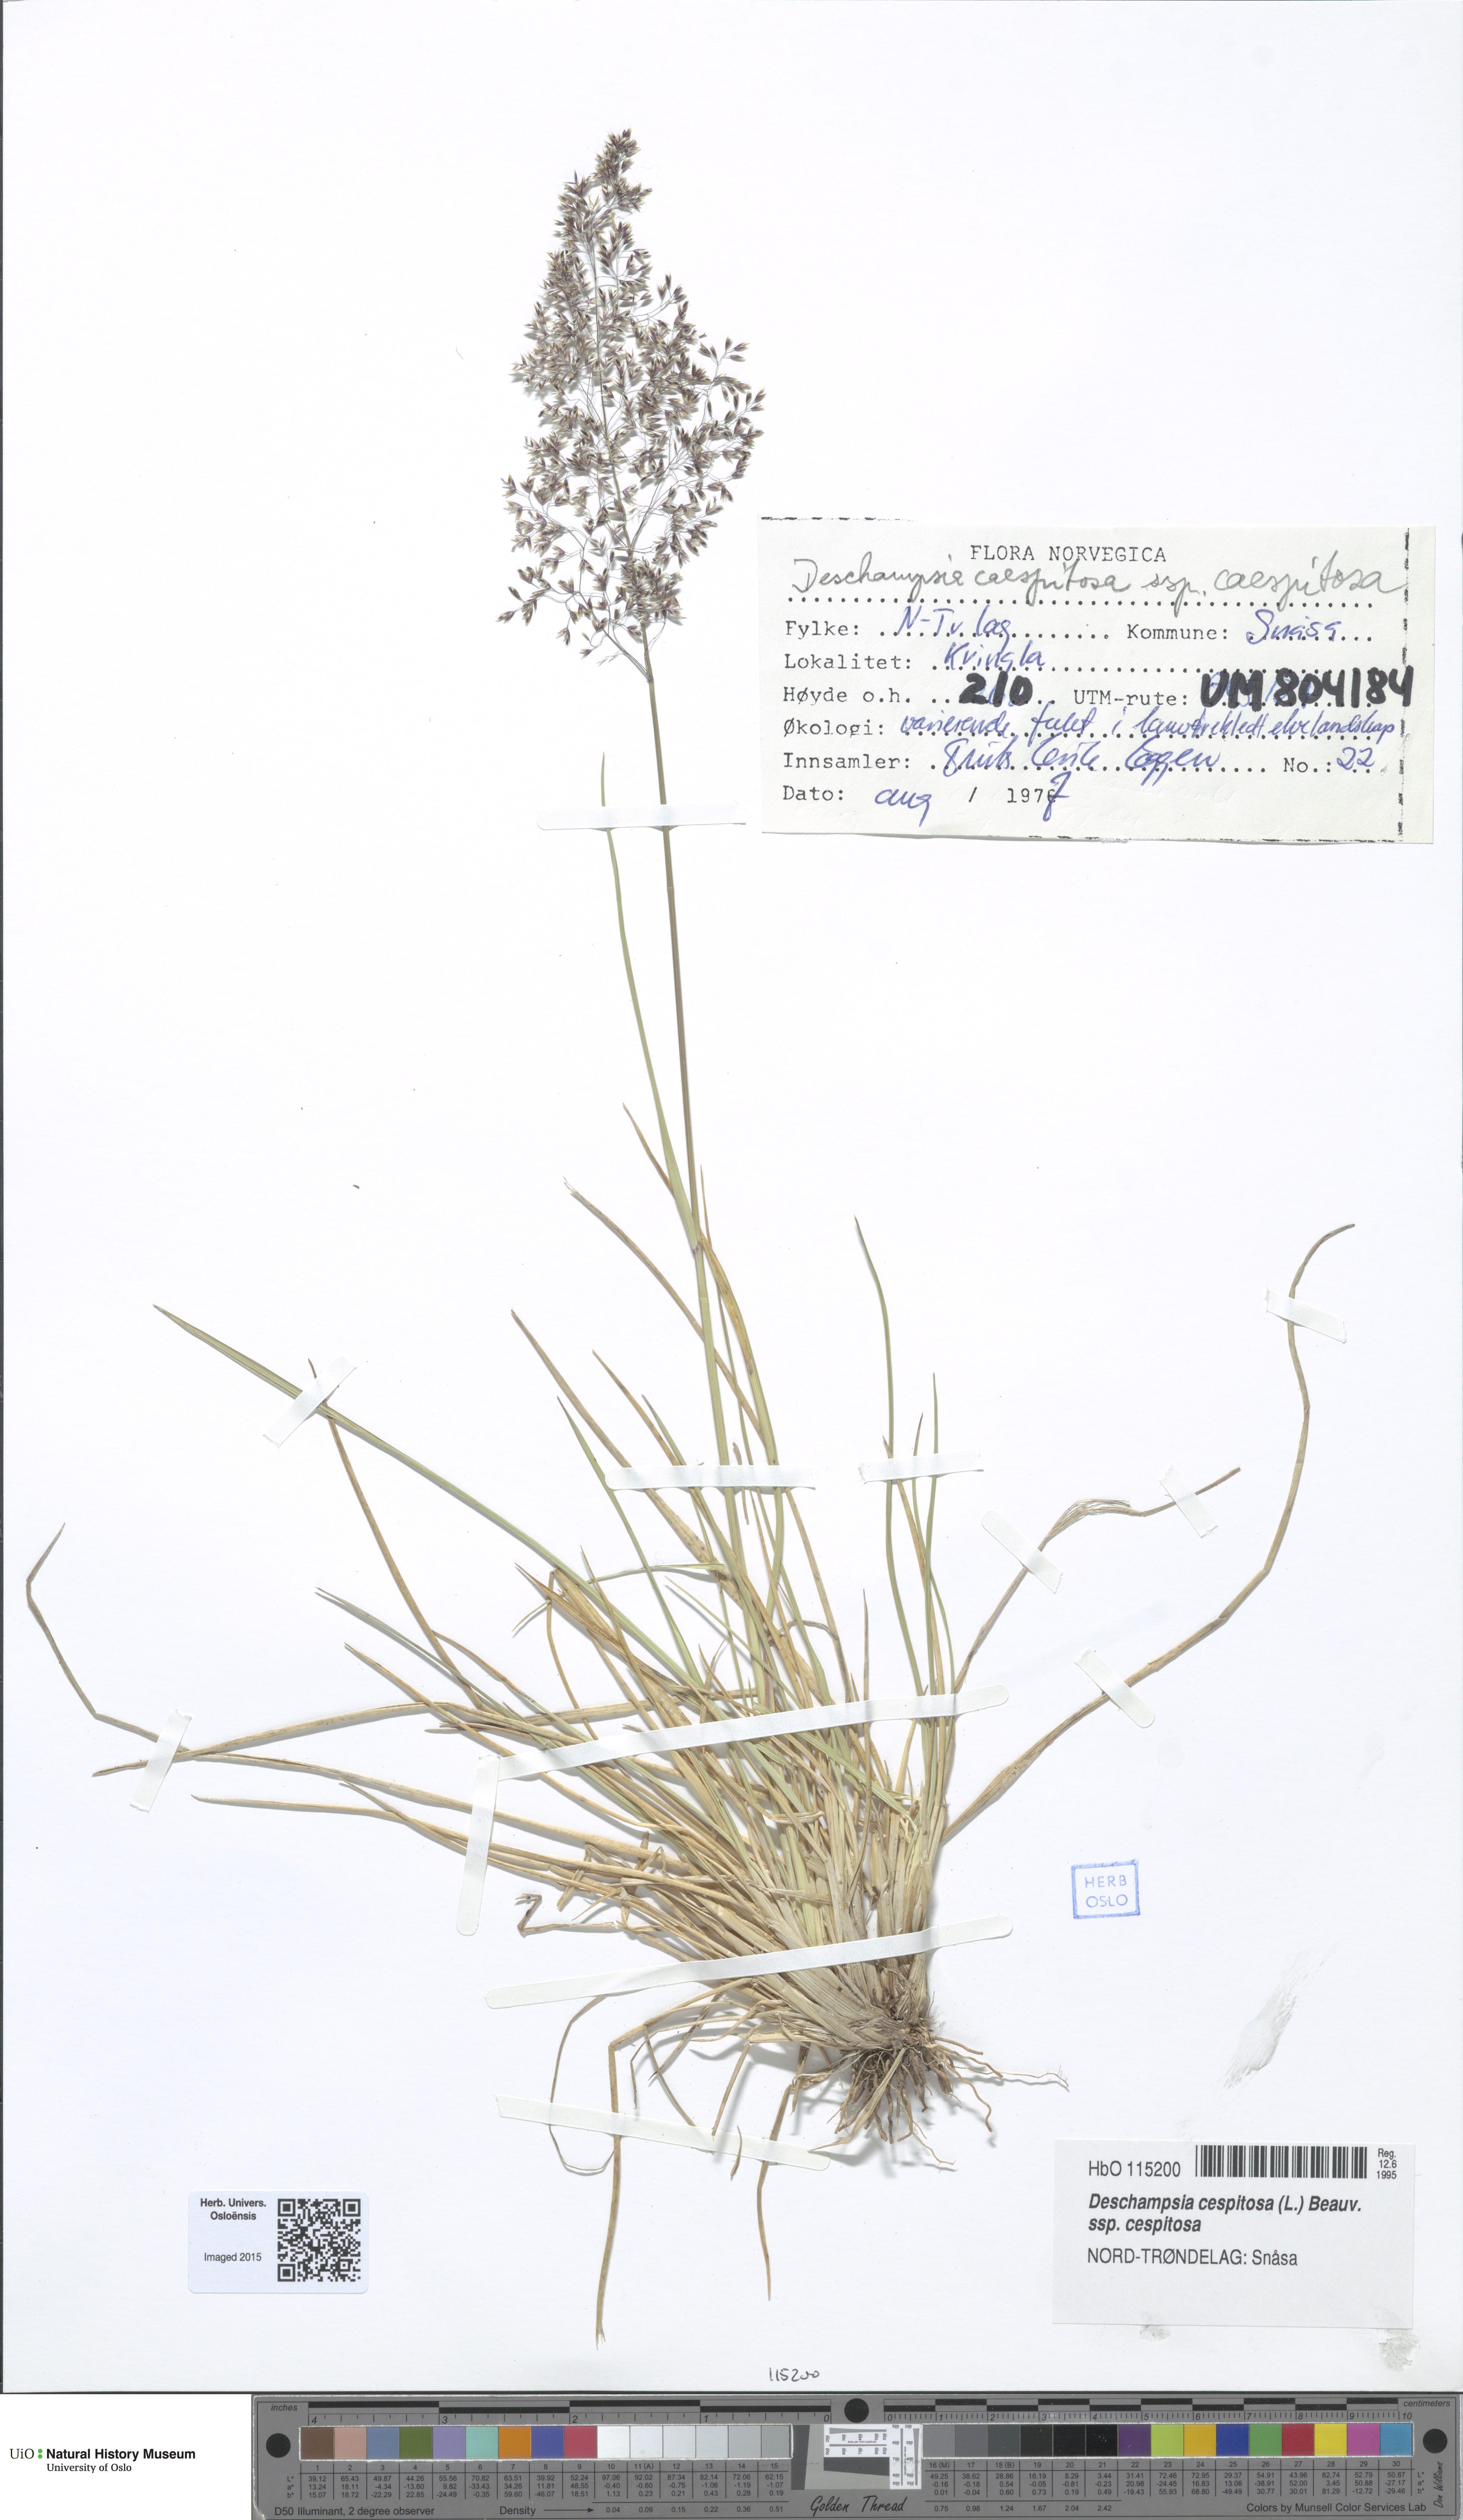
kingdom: Plantae
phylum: Tracheophyta
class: Liliopsida
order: Poales
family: Poaceae
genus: Deschampsia
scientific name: Deschampsia cespitosa
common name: Tufted hair-grass
